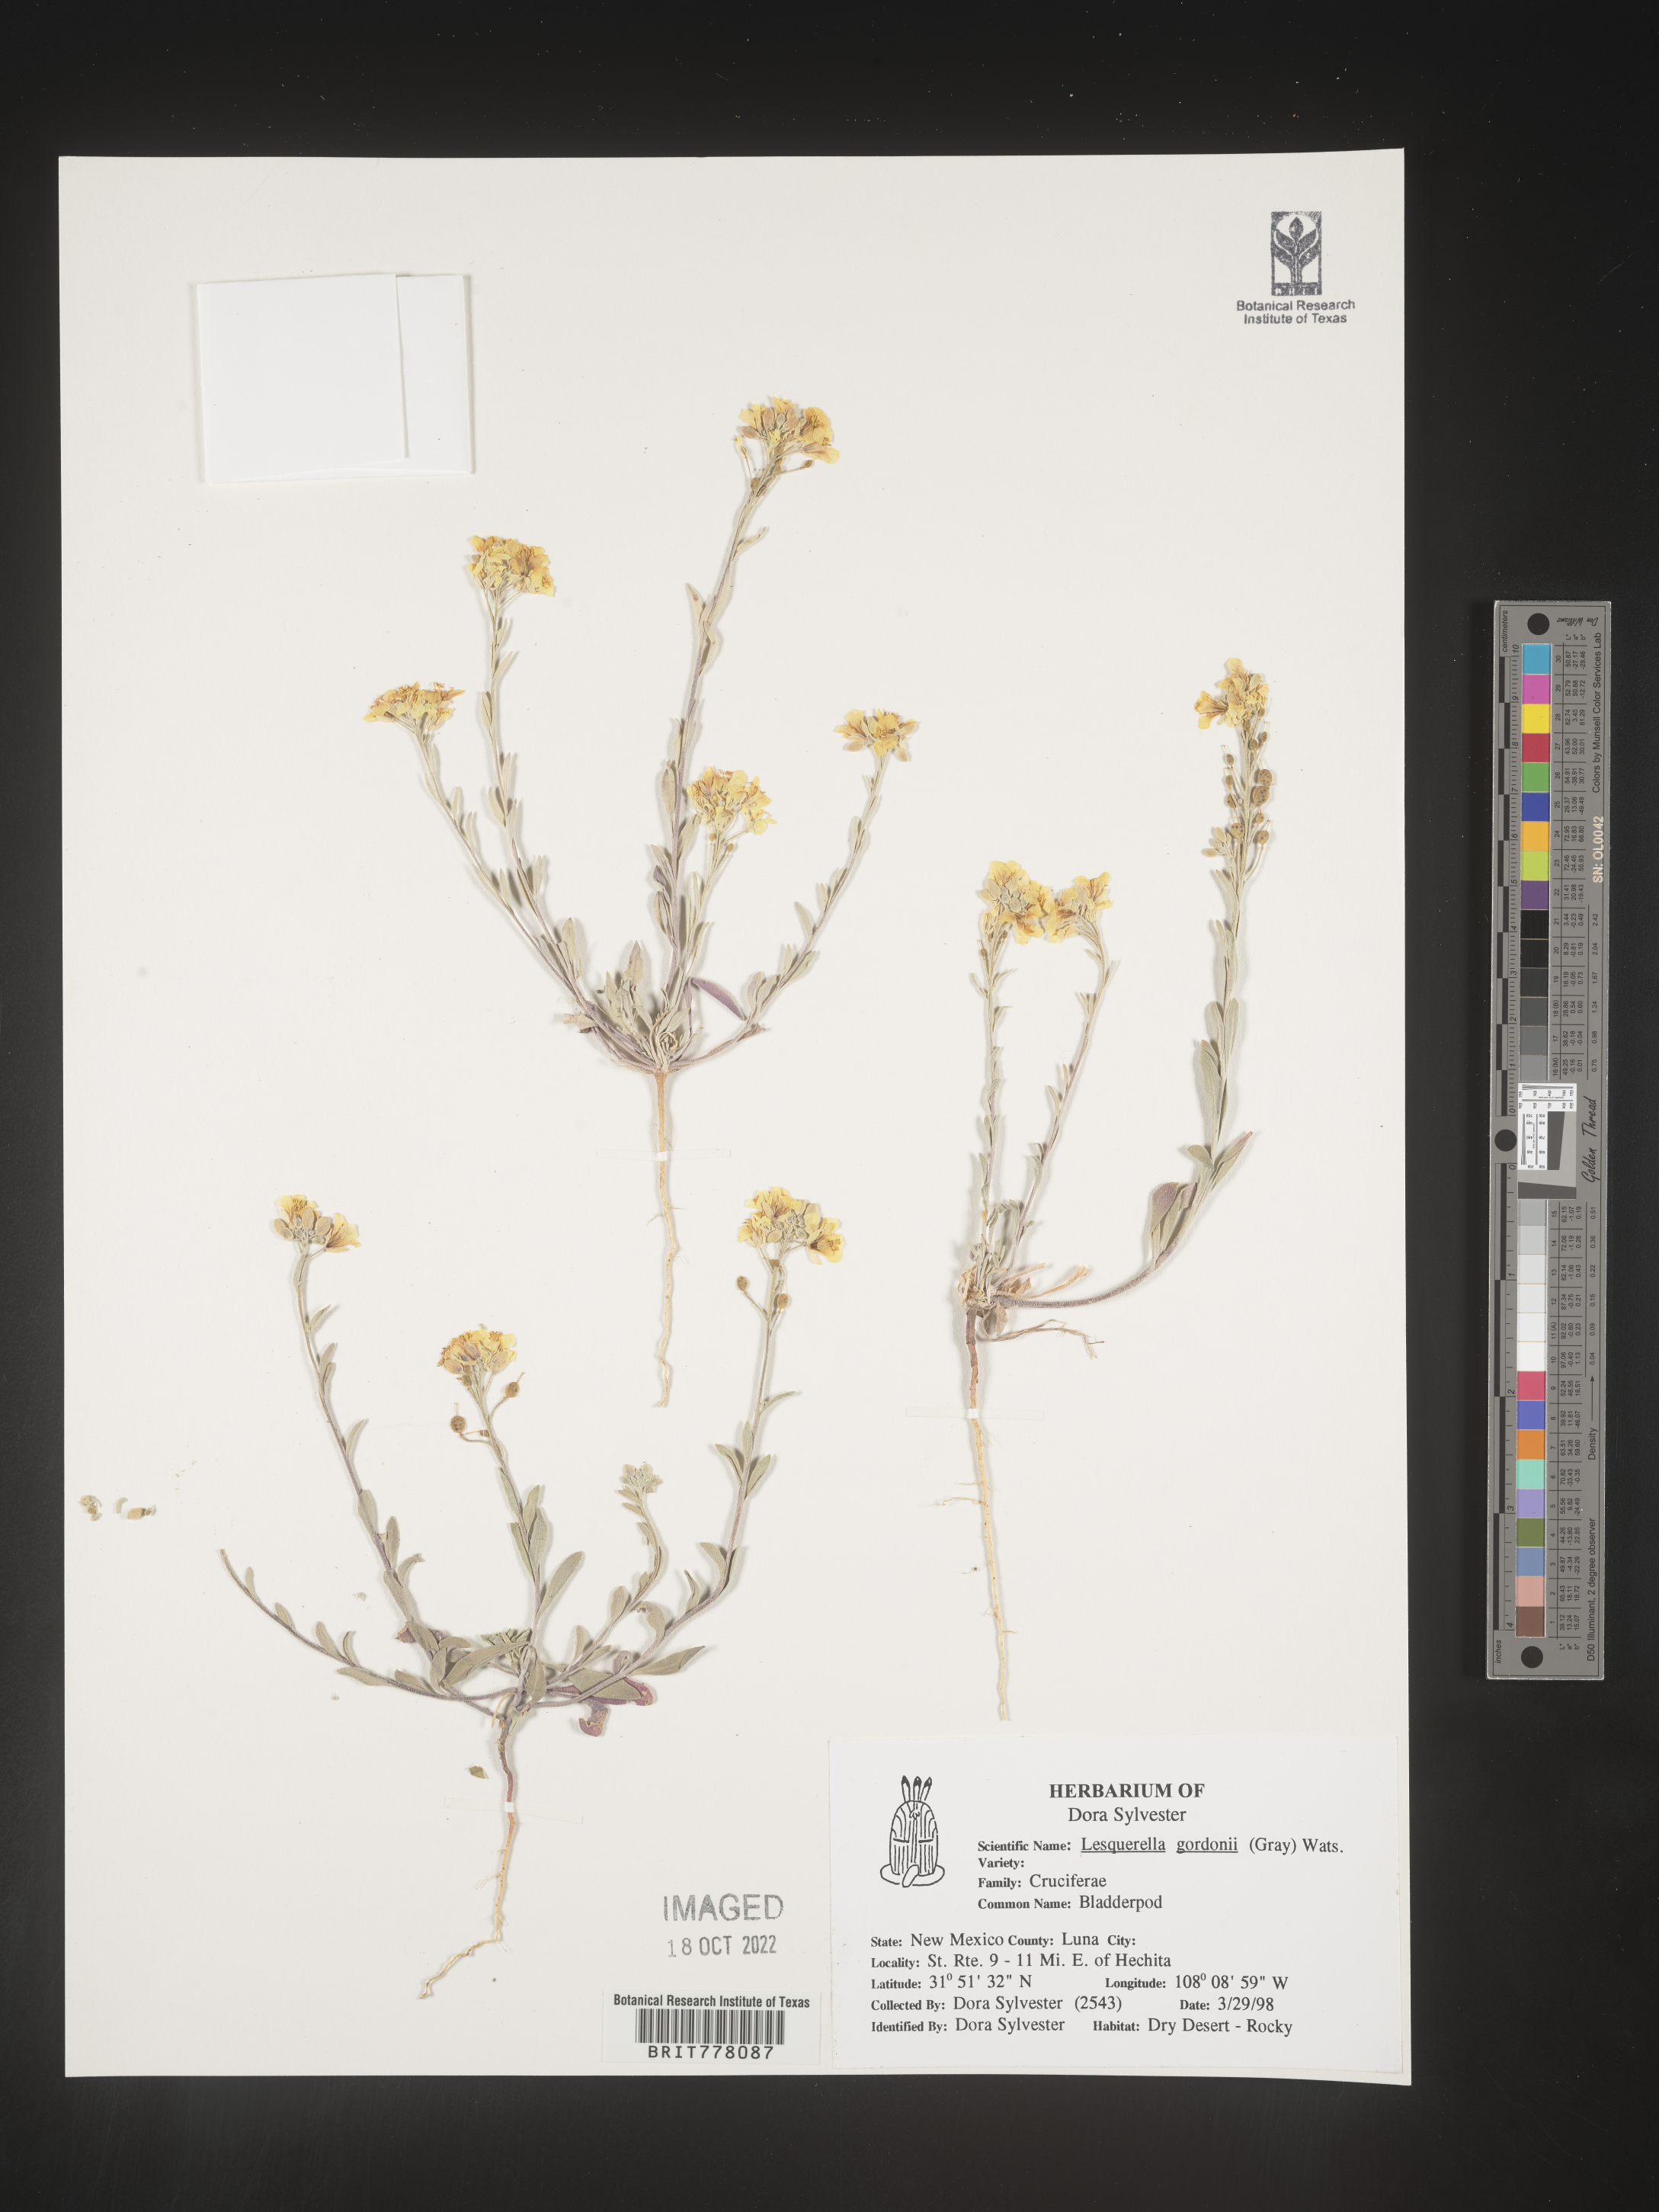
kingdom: Chromista
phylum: Cercozoa
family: Psammonobiotidae
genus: Lesquerella
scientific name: Lesquerella
